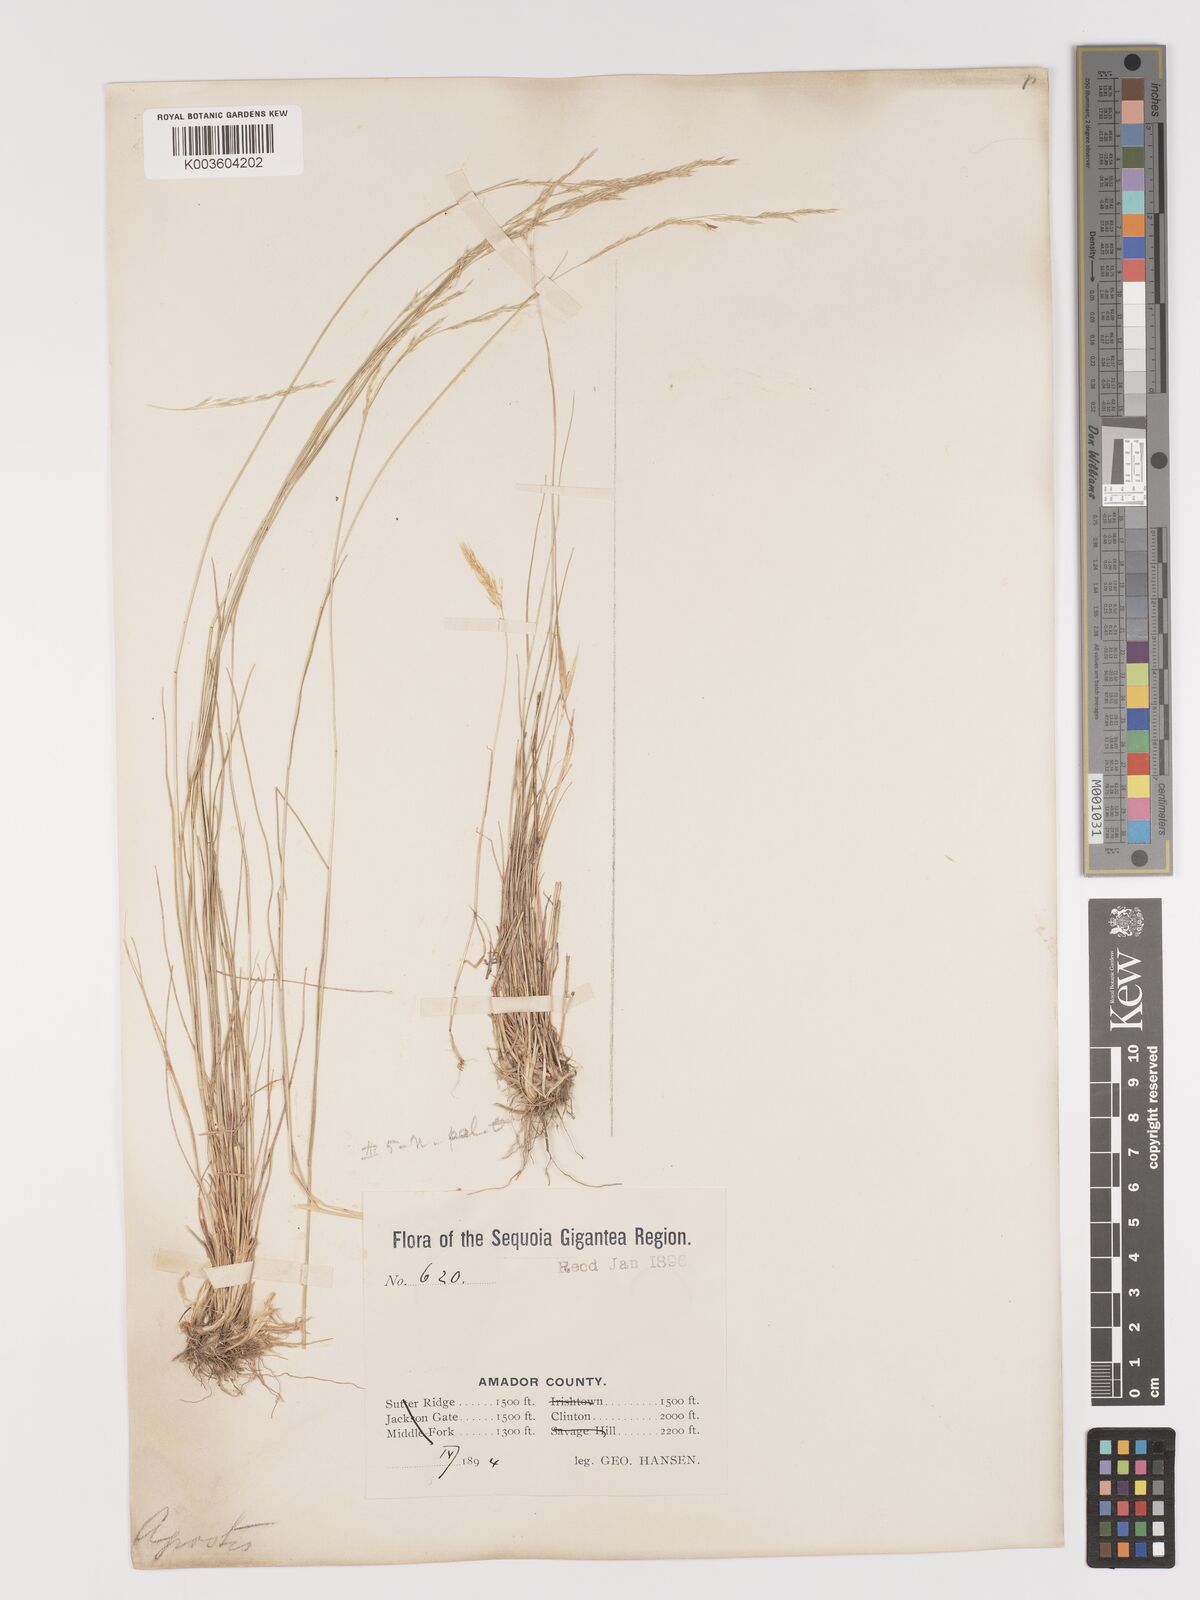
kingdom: Plantae
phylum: Tracheophyta
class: Liliopsida
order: Poales
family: Poaceae
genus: Agrostis
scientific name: Agrostis pallens
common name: Dune bent
